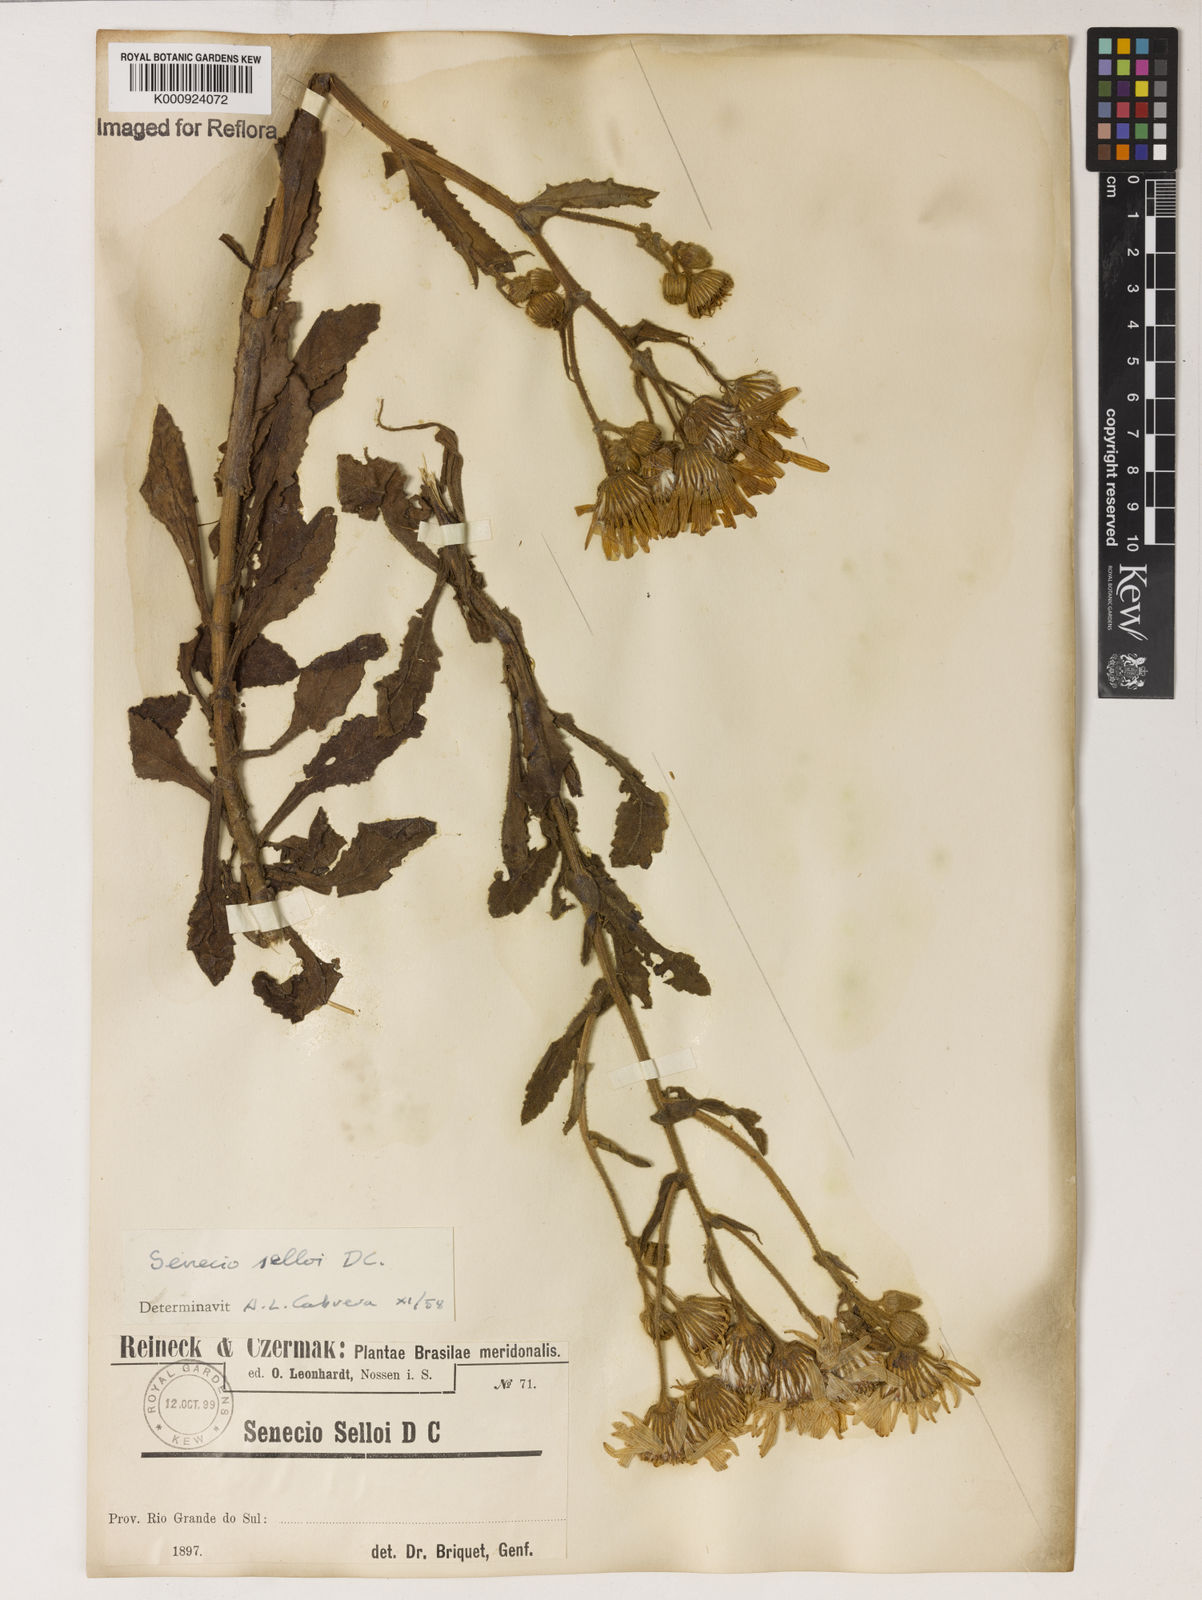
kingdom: Plantae
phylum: Tracheophyta
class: Magnoliopsida
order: Asterales
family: Asteraceae
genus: Senecio
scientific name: Senecio selloi
